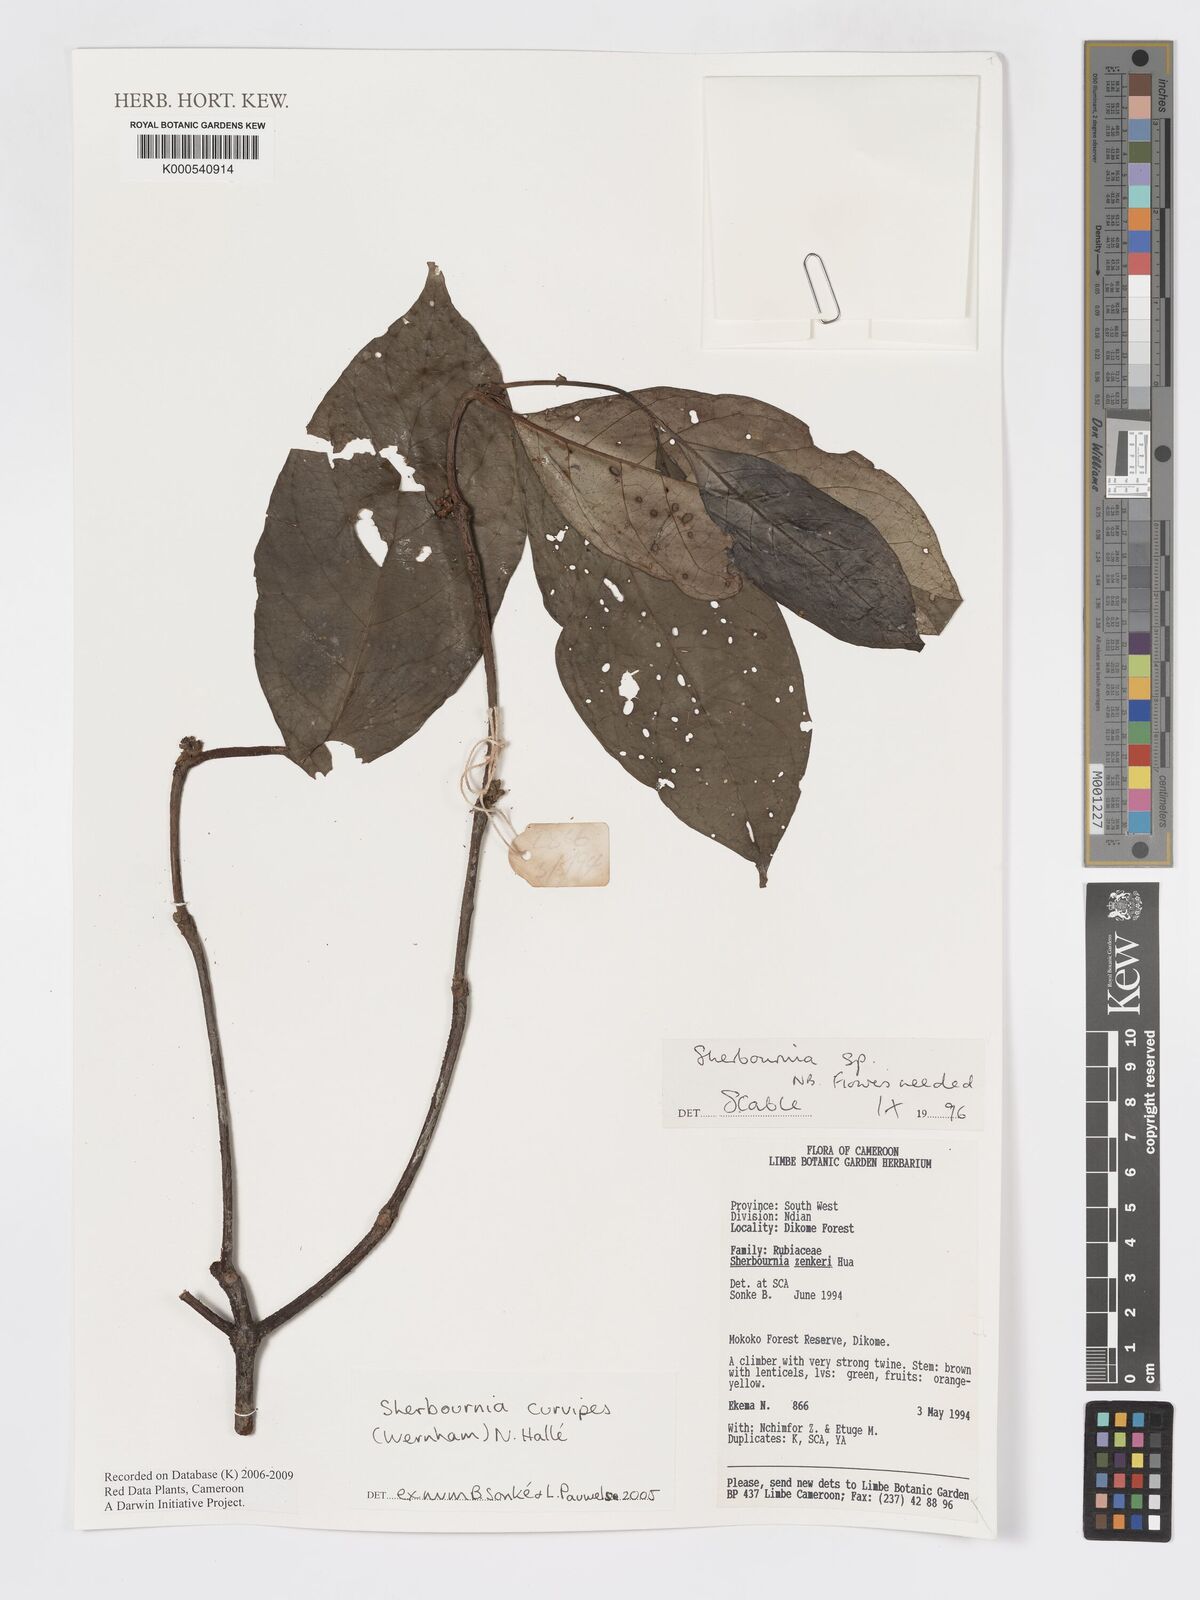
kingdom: Plantae
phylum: Tracheophyta
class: Magnoliopsida
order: Gentianales
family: Rubiaceae
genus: Sherbournia
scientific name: Sherbournia
